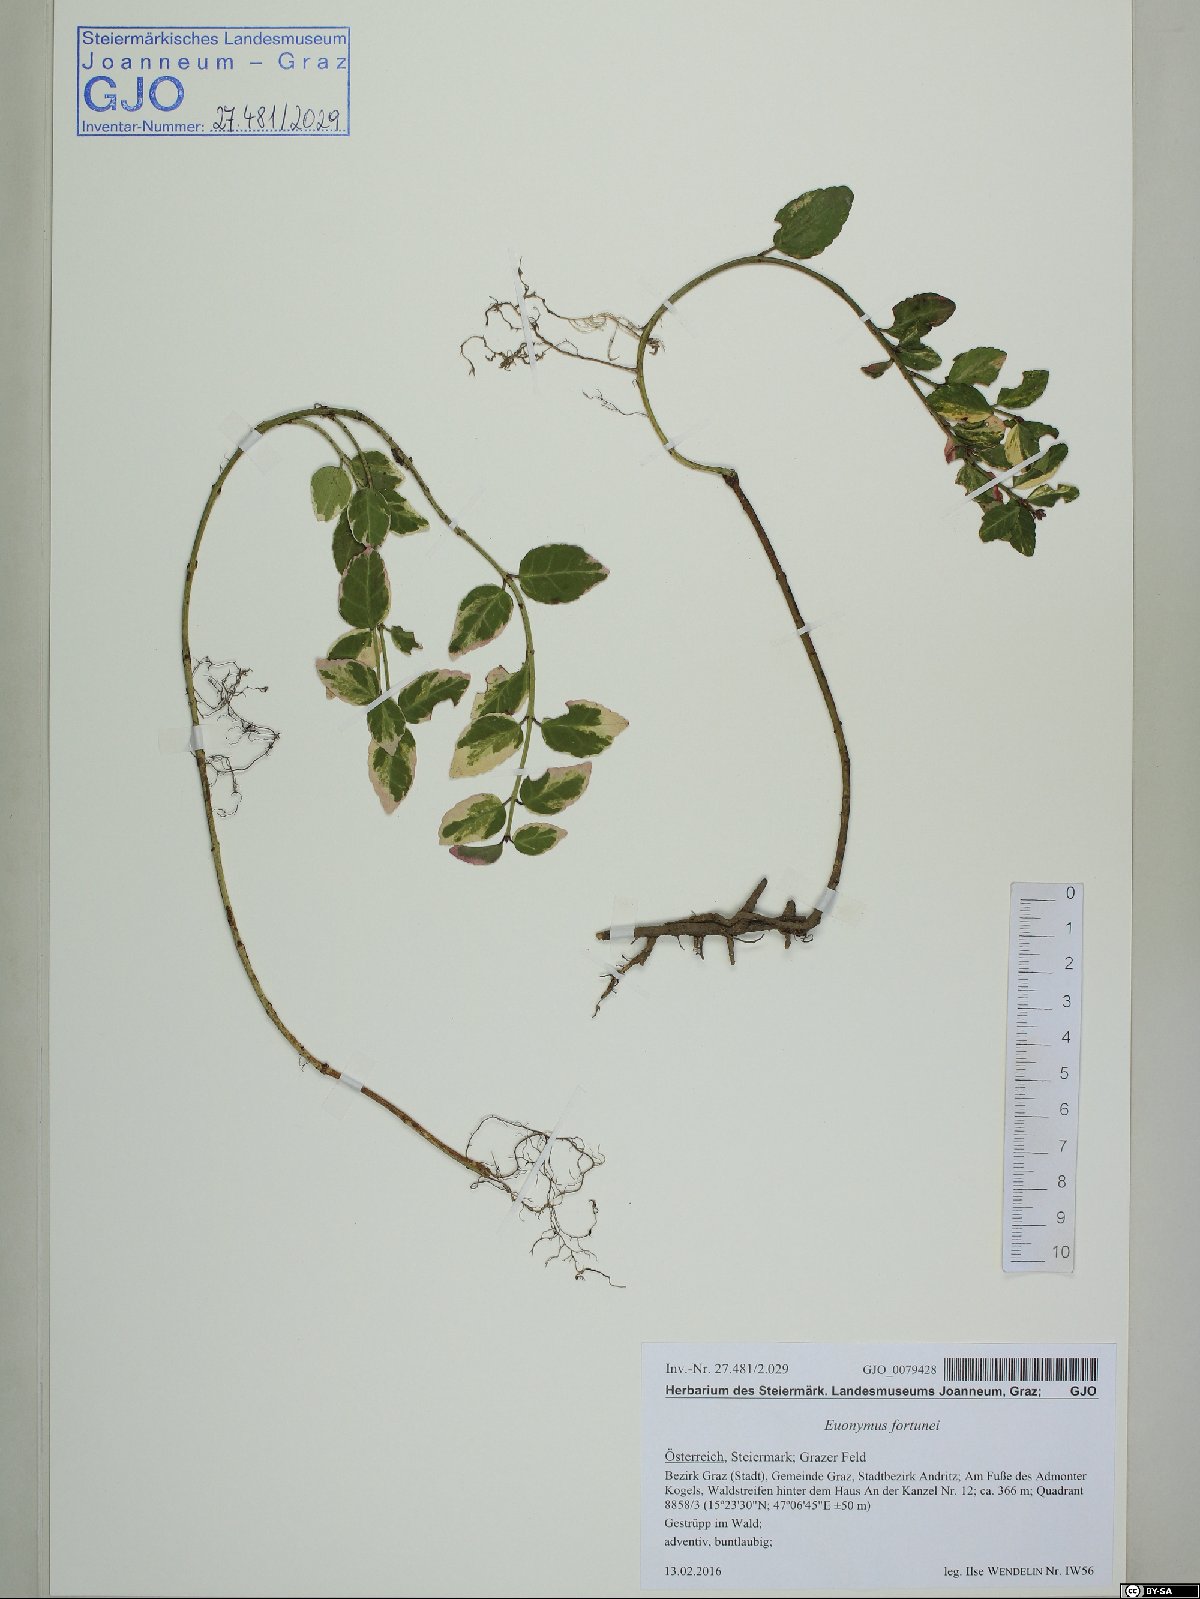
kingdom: Plantae
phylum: Tracheophyta
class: Magnoliopsida
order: Celastrales
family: Celastraceae
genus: Euonymus
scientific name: Euonymus fortunei
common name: Climbing euonymus
